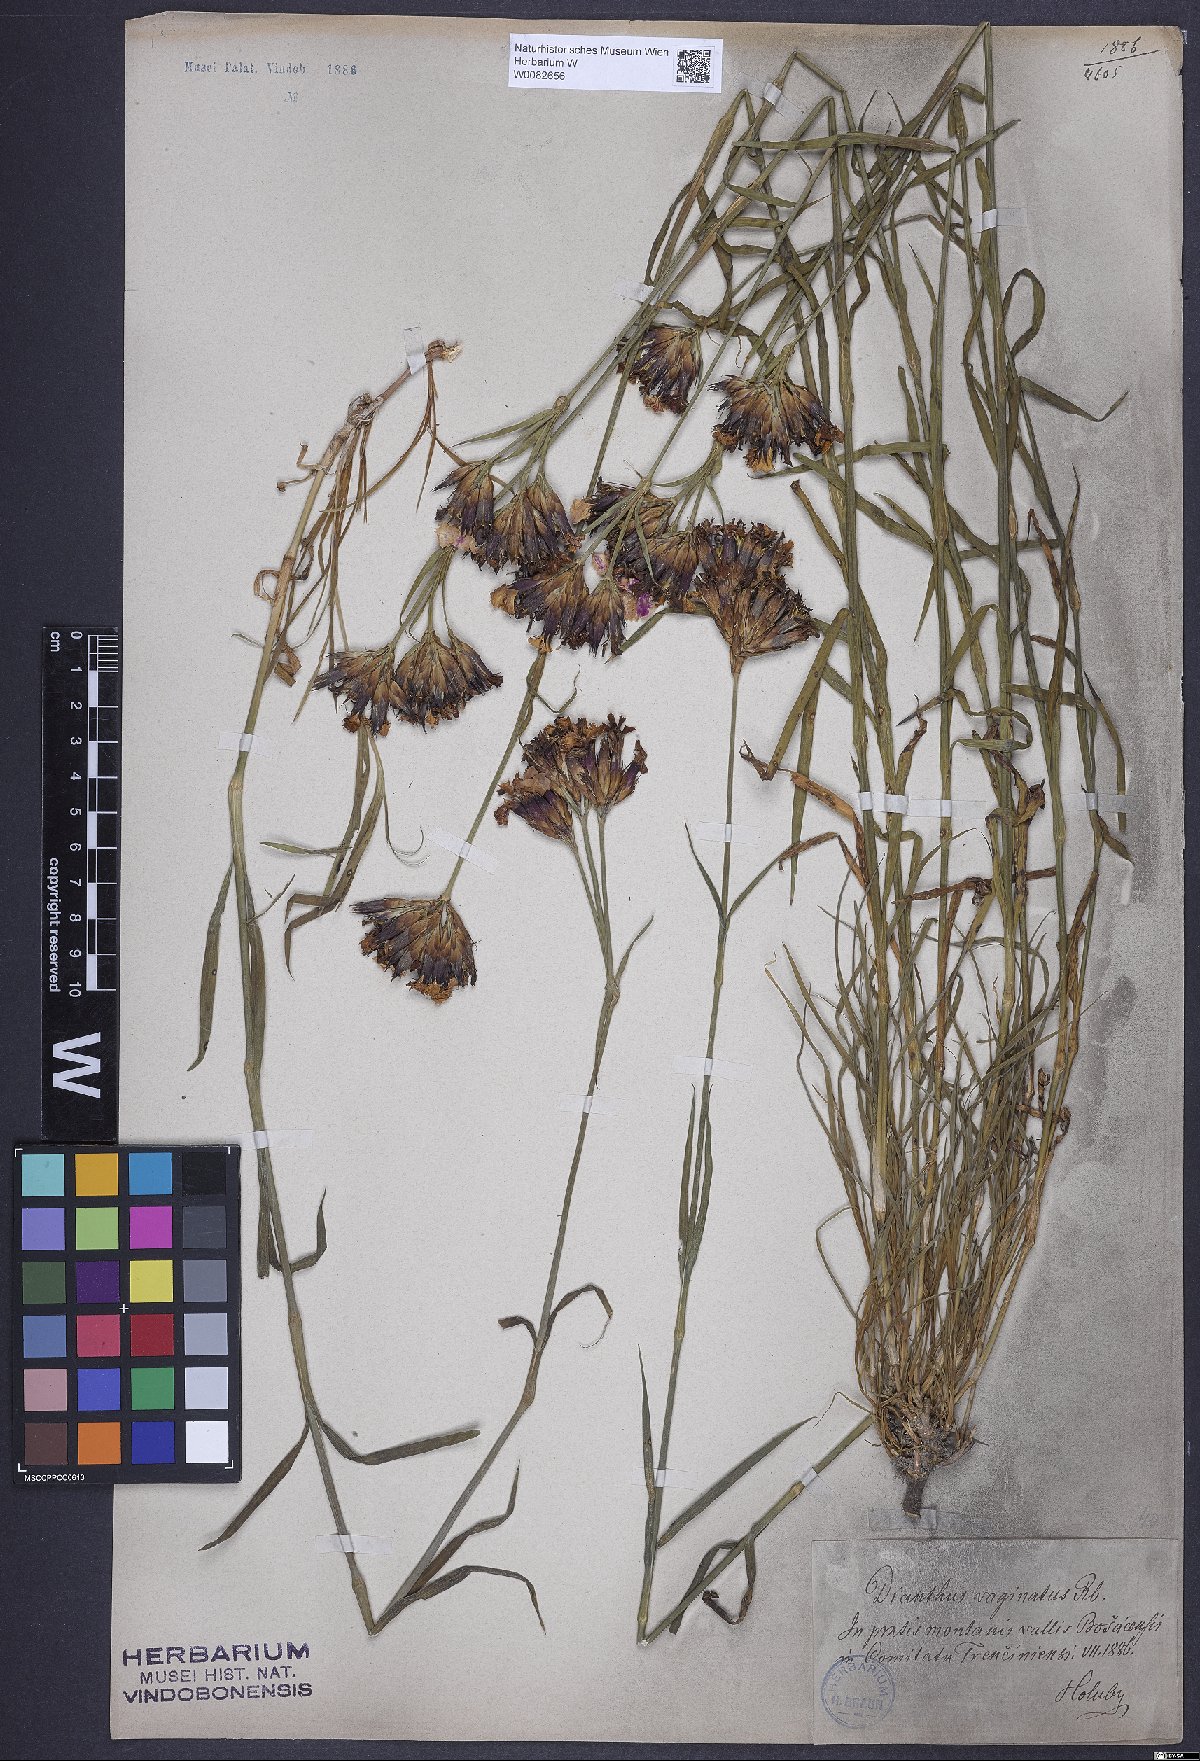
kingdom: Plantae
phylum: Tracheophyta
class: Magnoliopsida
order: Caryophyllales
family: Caryophyllaceae
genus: Dianthus
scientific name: Dianthus carthusianorum
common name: Carthusian pink
